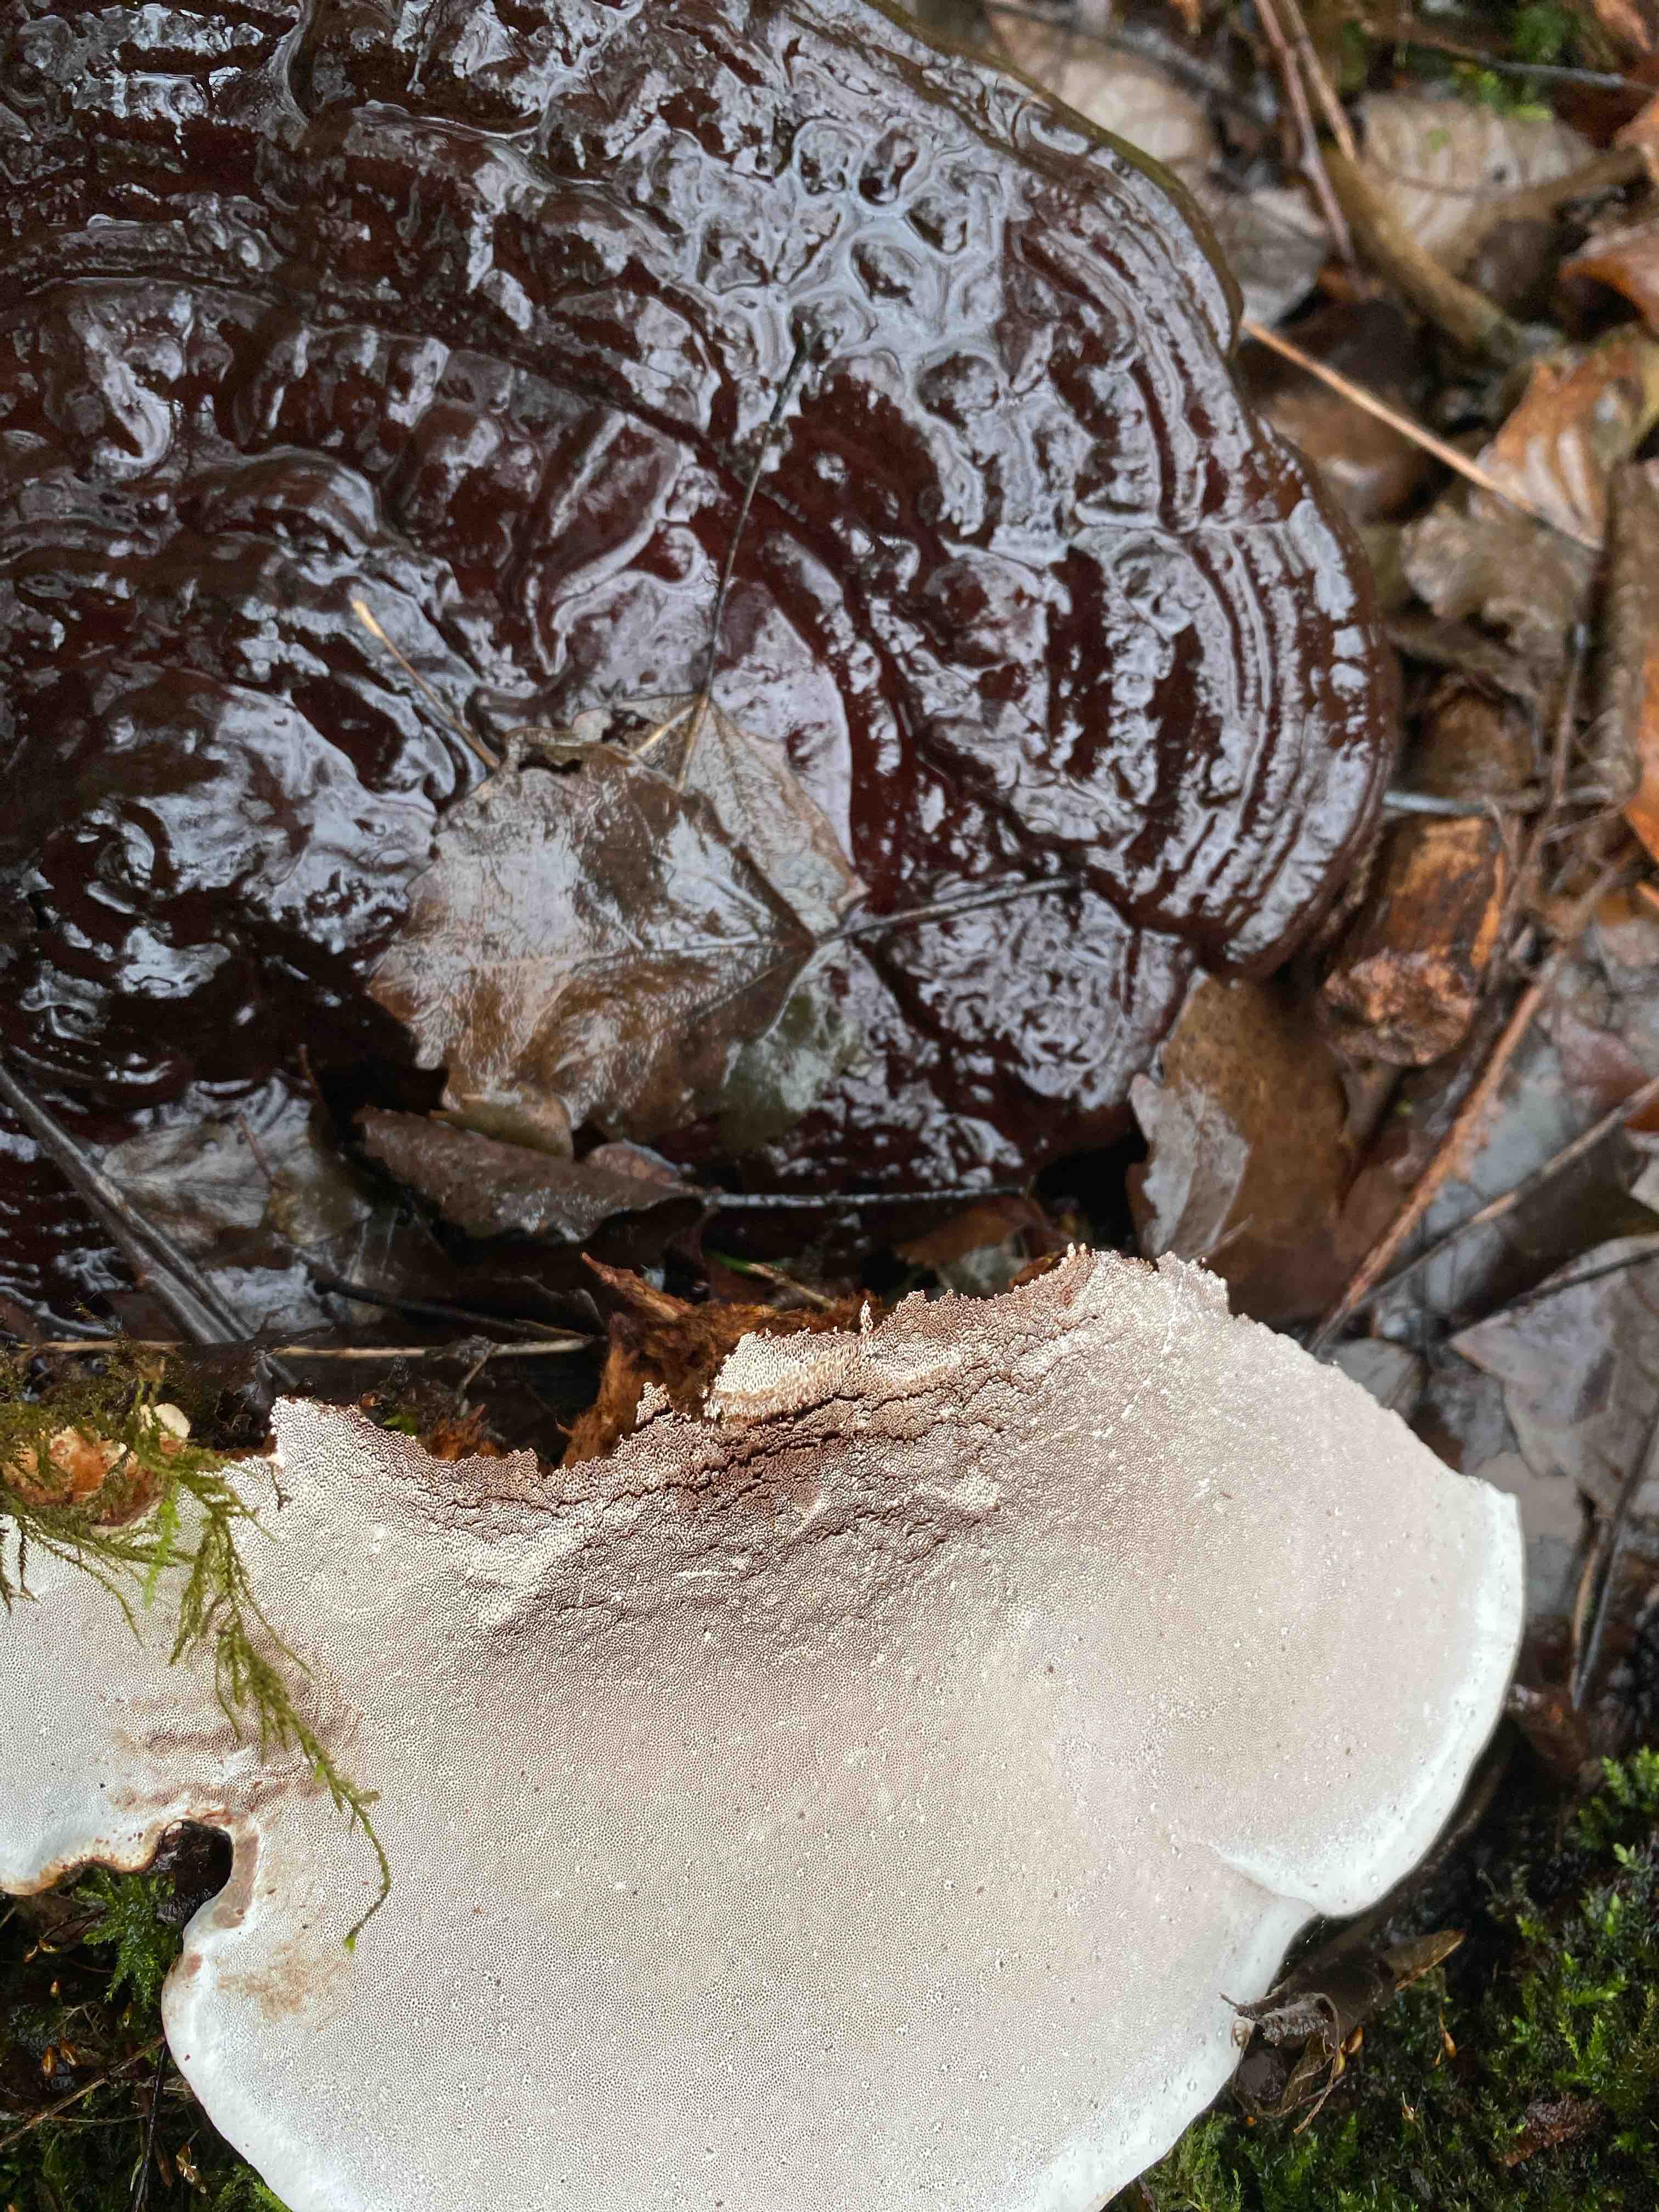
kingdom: Fungi
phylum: Basidiomycota
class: Agaricomycetes
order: Polyporales
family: Polyporaceae
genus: Ganoderma
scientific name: Ganoderma applanatum
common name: flad lakporesvamp
